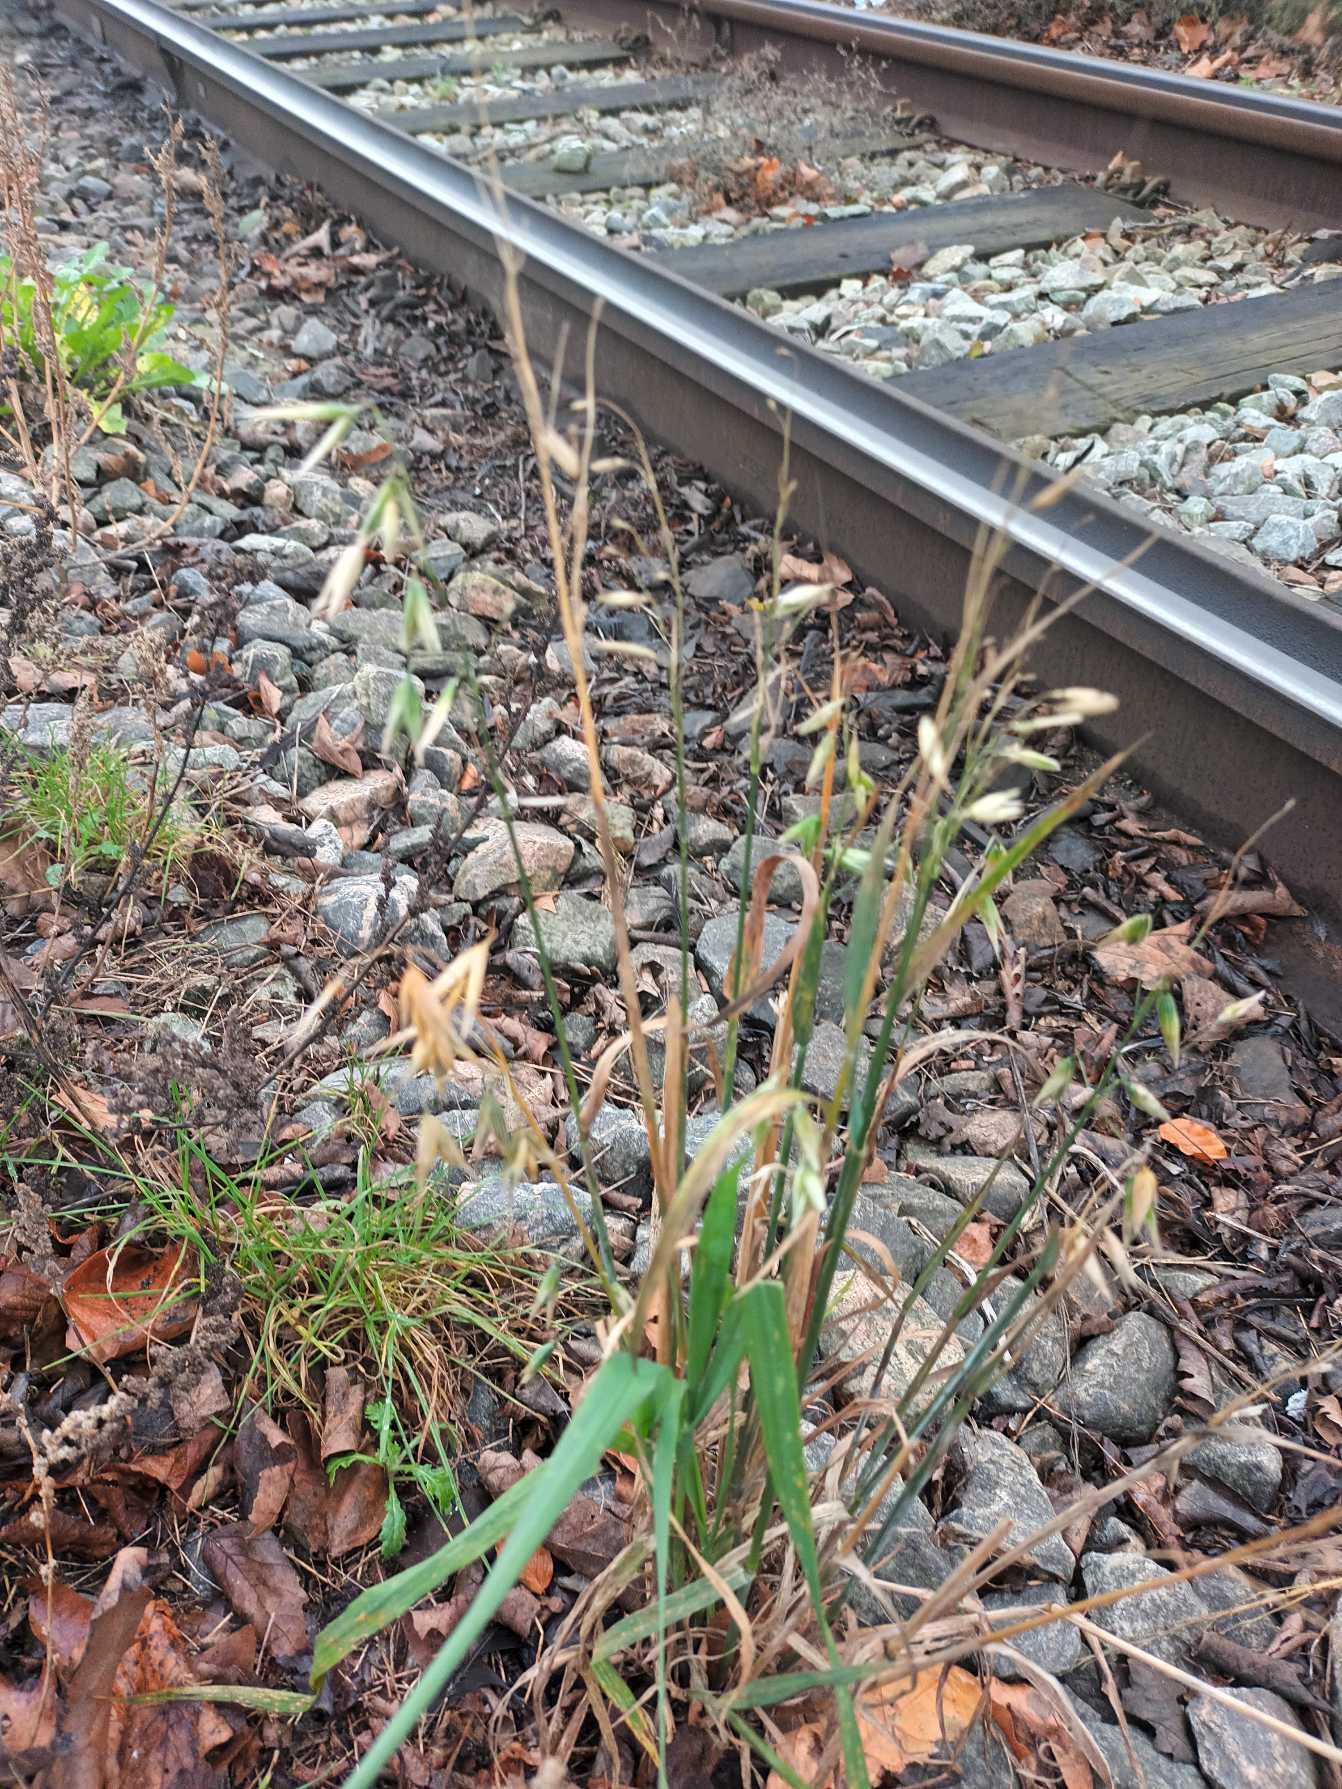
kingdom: Plantae
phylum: Tracheophyta
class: Liliopsida
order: Poales
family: Poaceae
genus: Avena
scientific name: Avena sativa
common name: Almindelig havre
